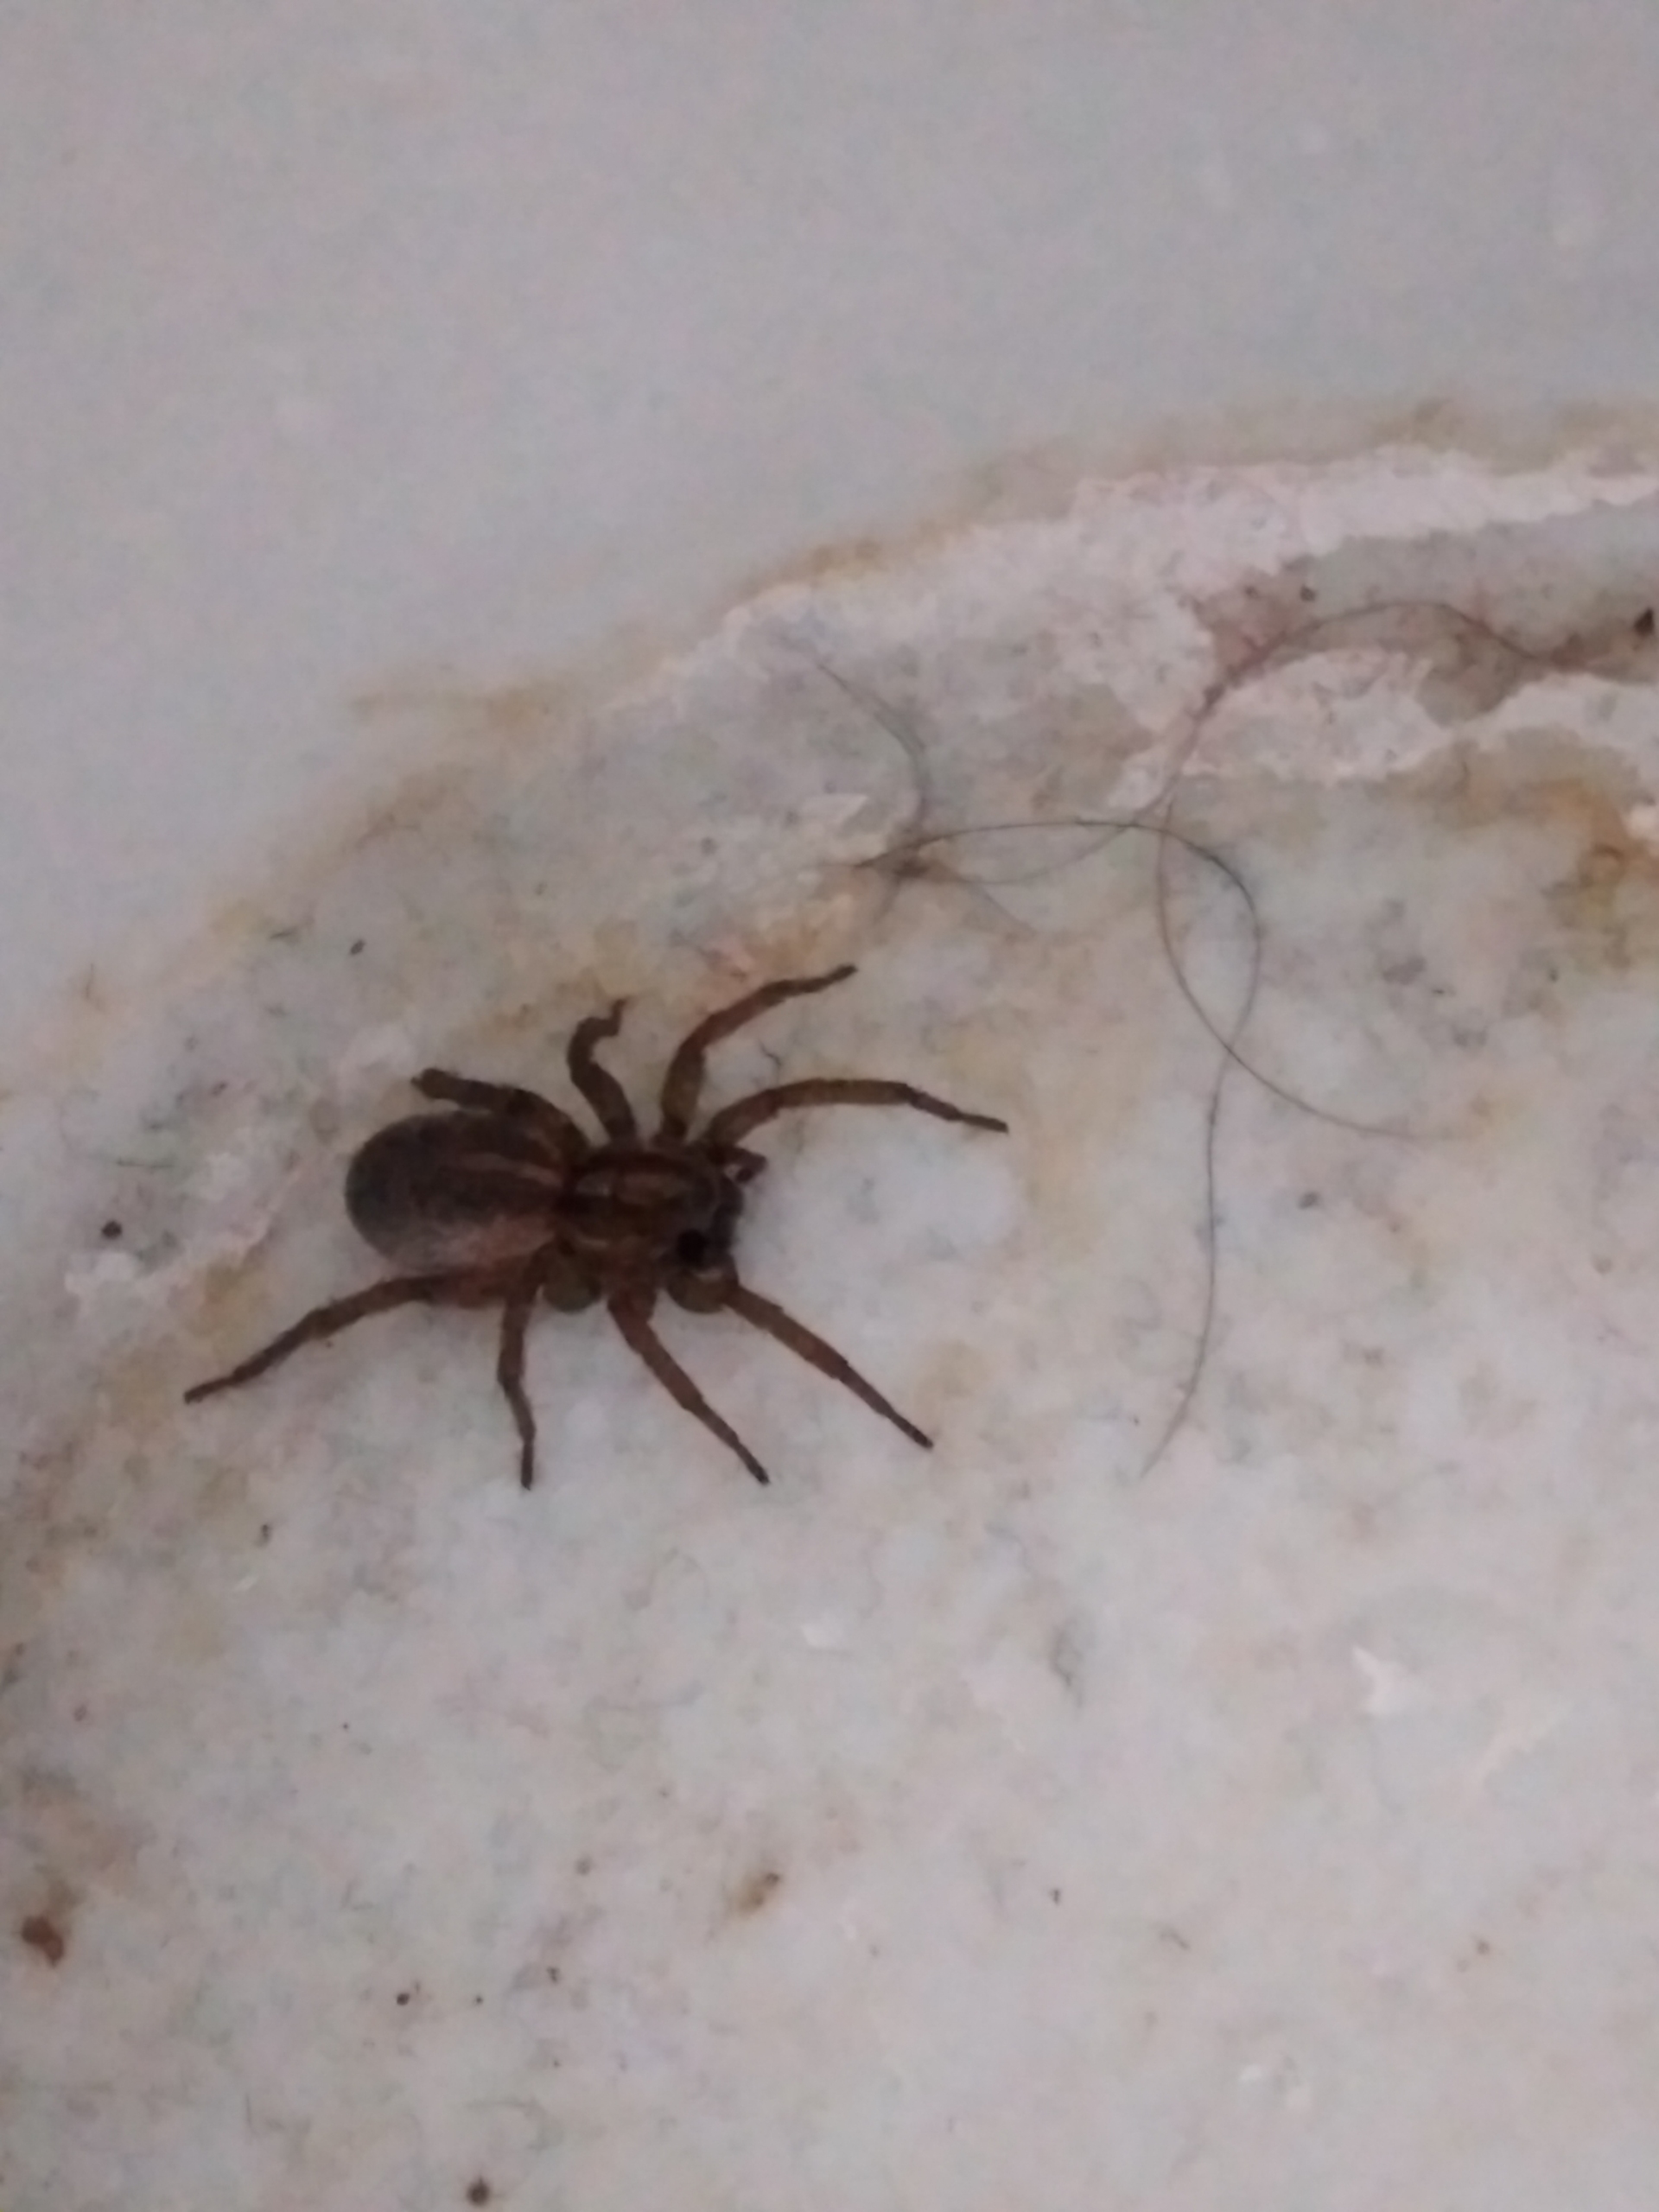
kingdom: Animalia
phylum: Arthropoda
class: Arachnida
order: Araneae
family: Lycosidae
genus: Trochosa
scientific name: Trochosa ruricola
